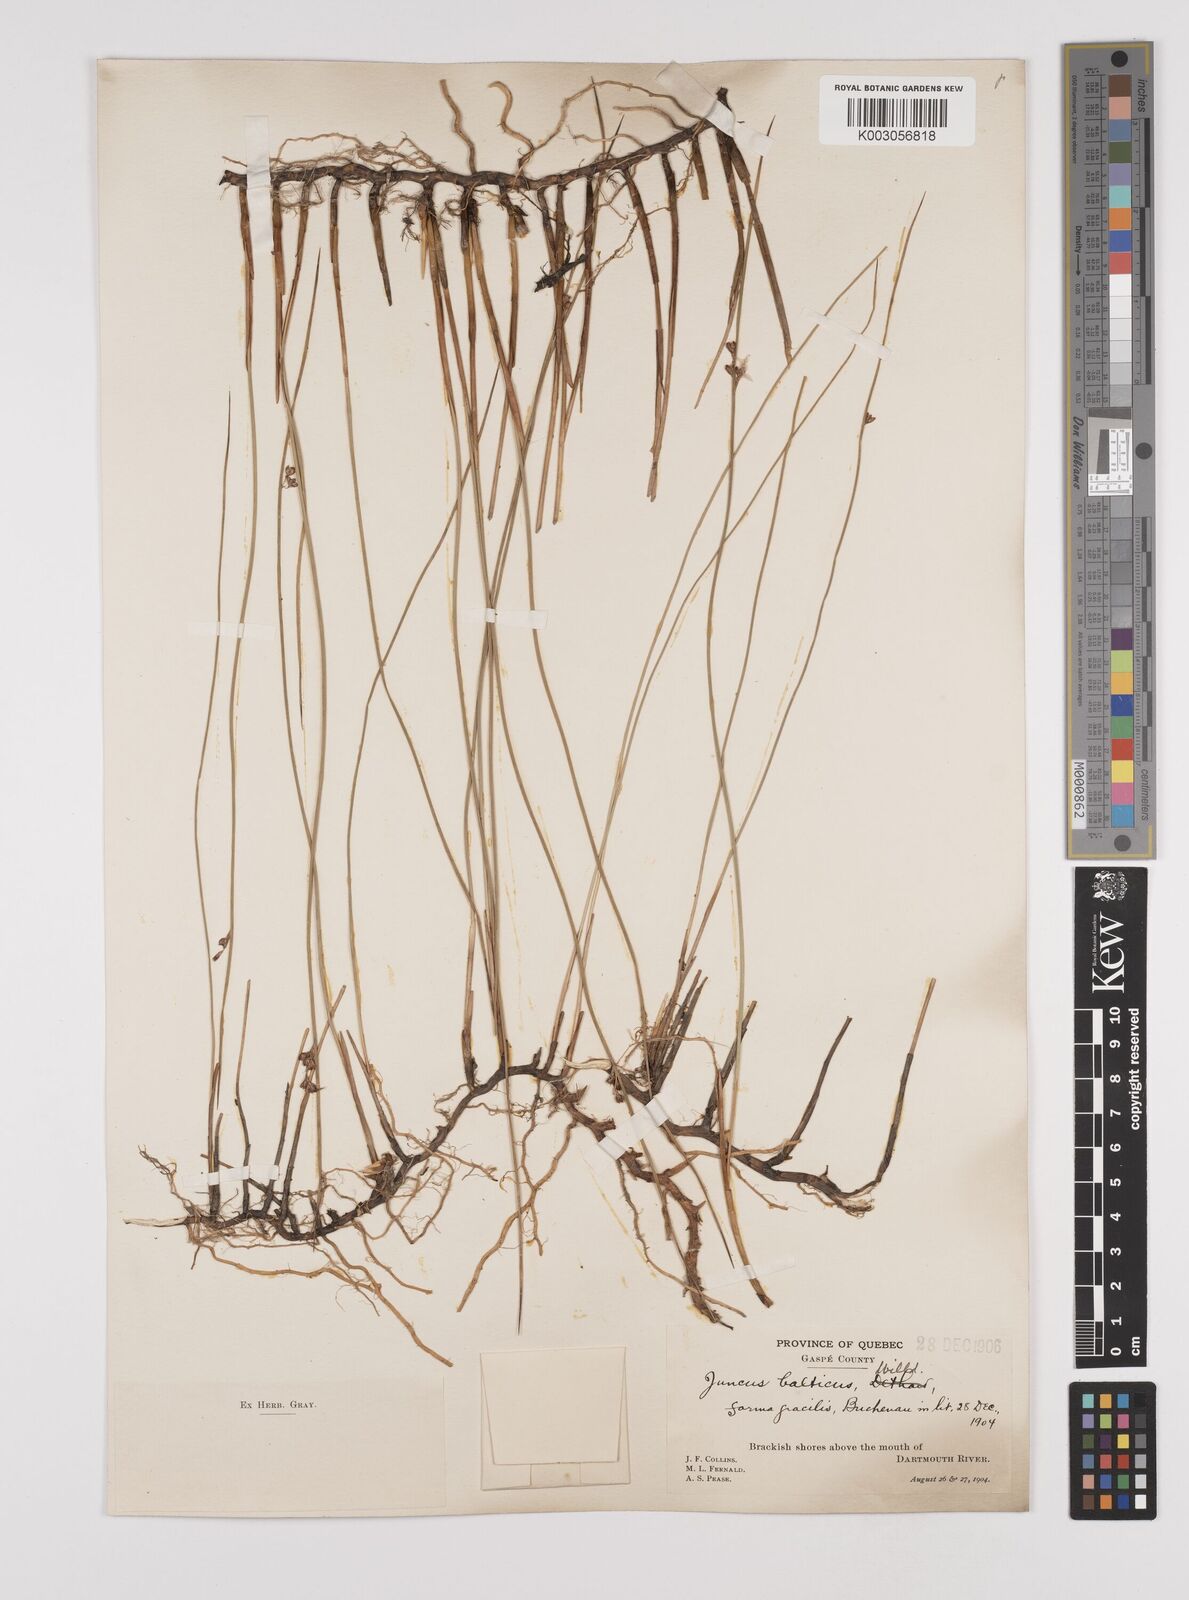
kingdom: Plantae
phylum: Tracheophyta
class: Liliopsida
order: Poales
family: Juncaceae
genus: Juncus
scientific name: Juncus balticus
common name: Baltic rush
